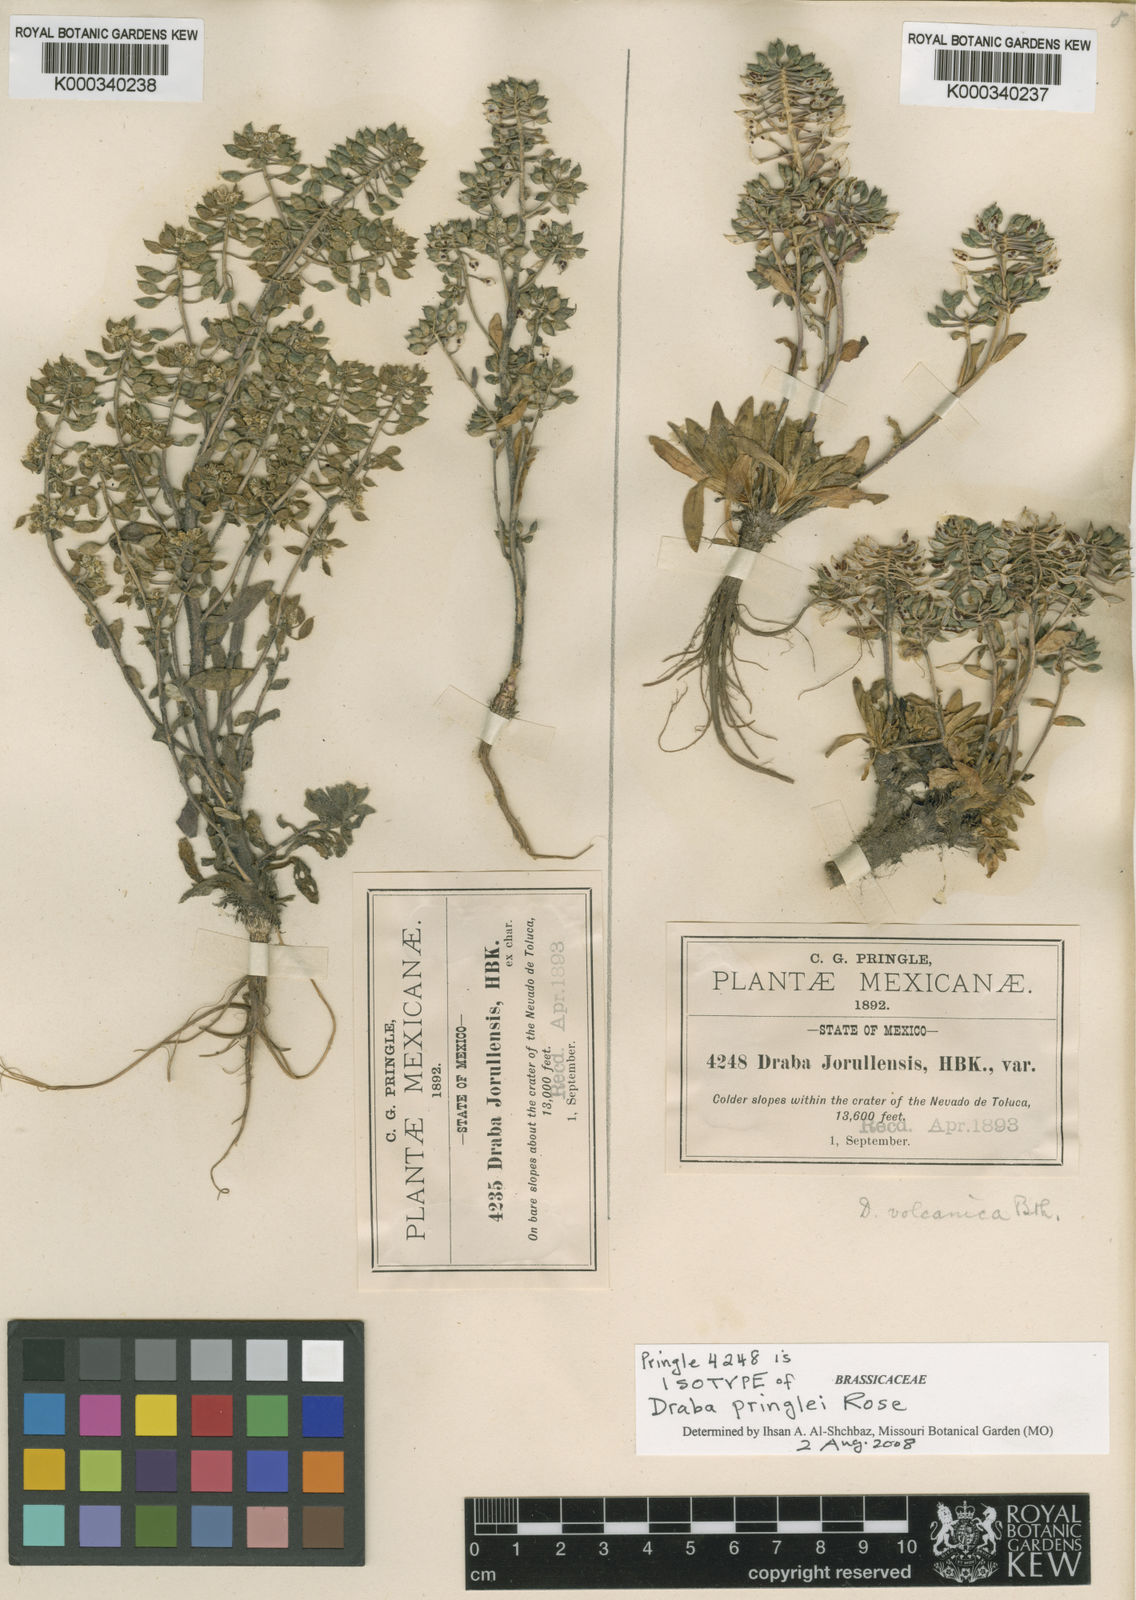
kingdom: Plantae
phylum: Tracheophyta
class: Magnoliopsida
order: Brassicales
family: Brassicaceae
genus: Draba
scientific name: Draba jorullensis
